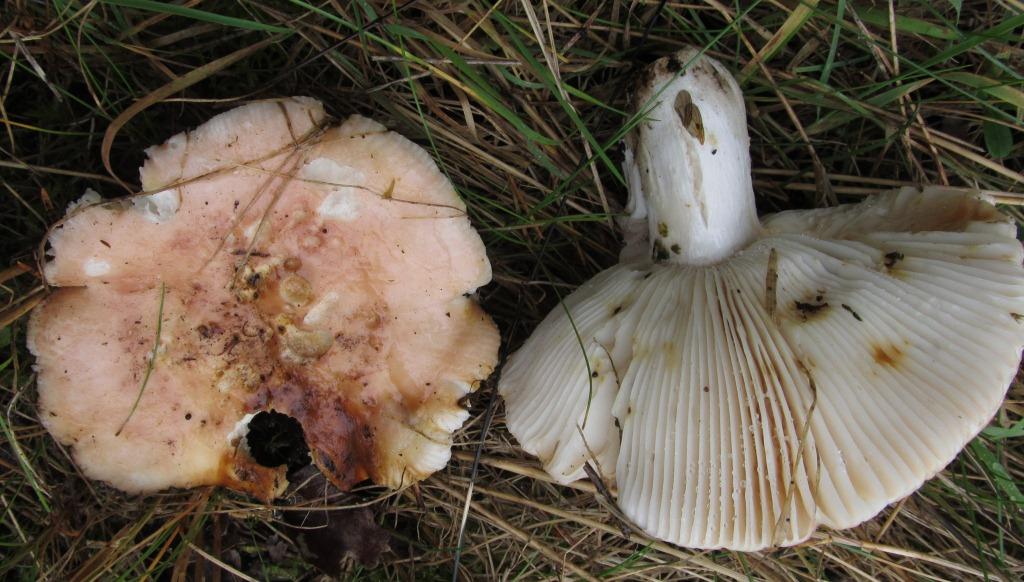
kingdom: Fungi
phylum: Basidiomycota
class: Agaricomycetes
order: Russulales
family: Russulaceae
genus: Russula
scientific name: Russula vesca
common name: spiselig skørhat
